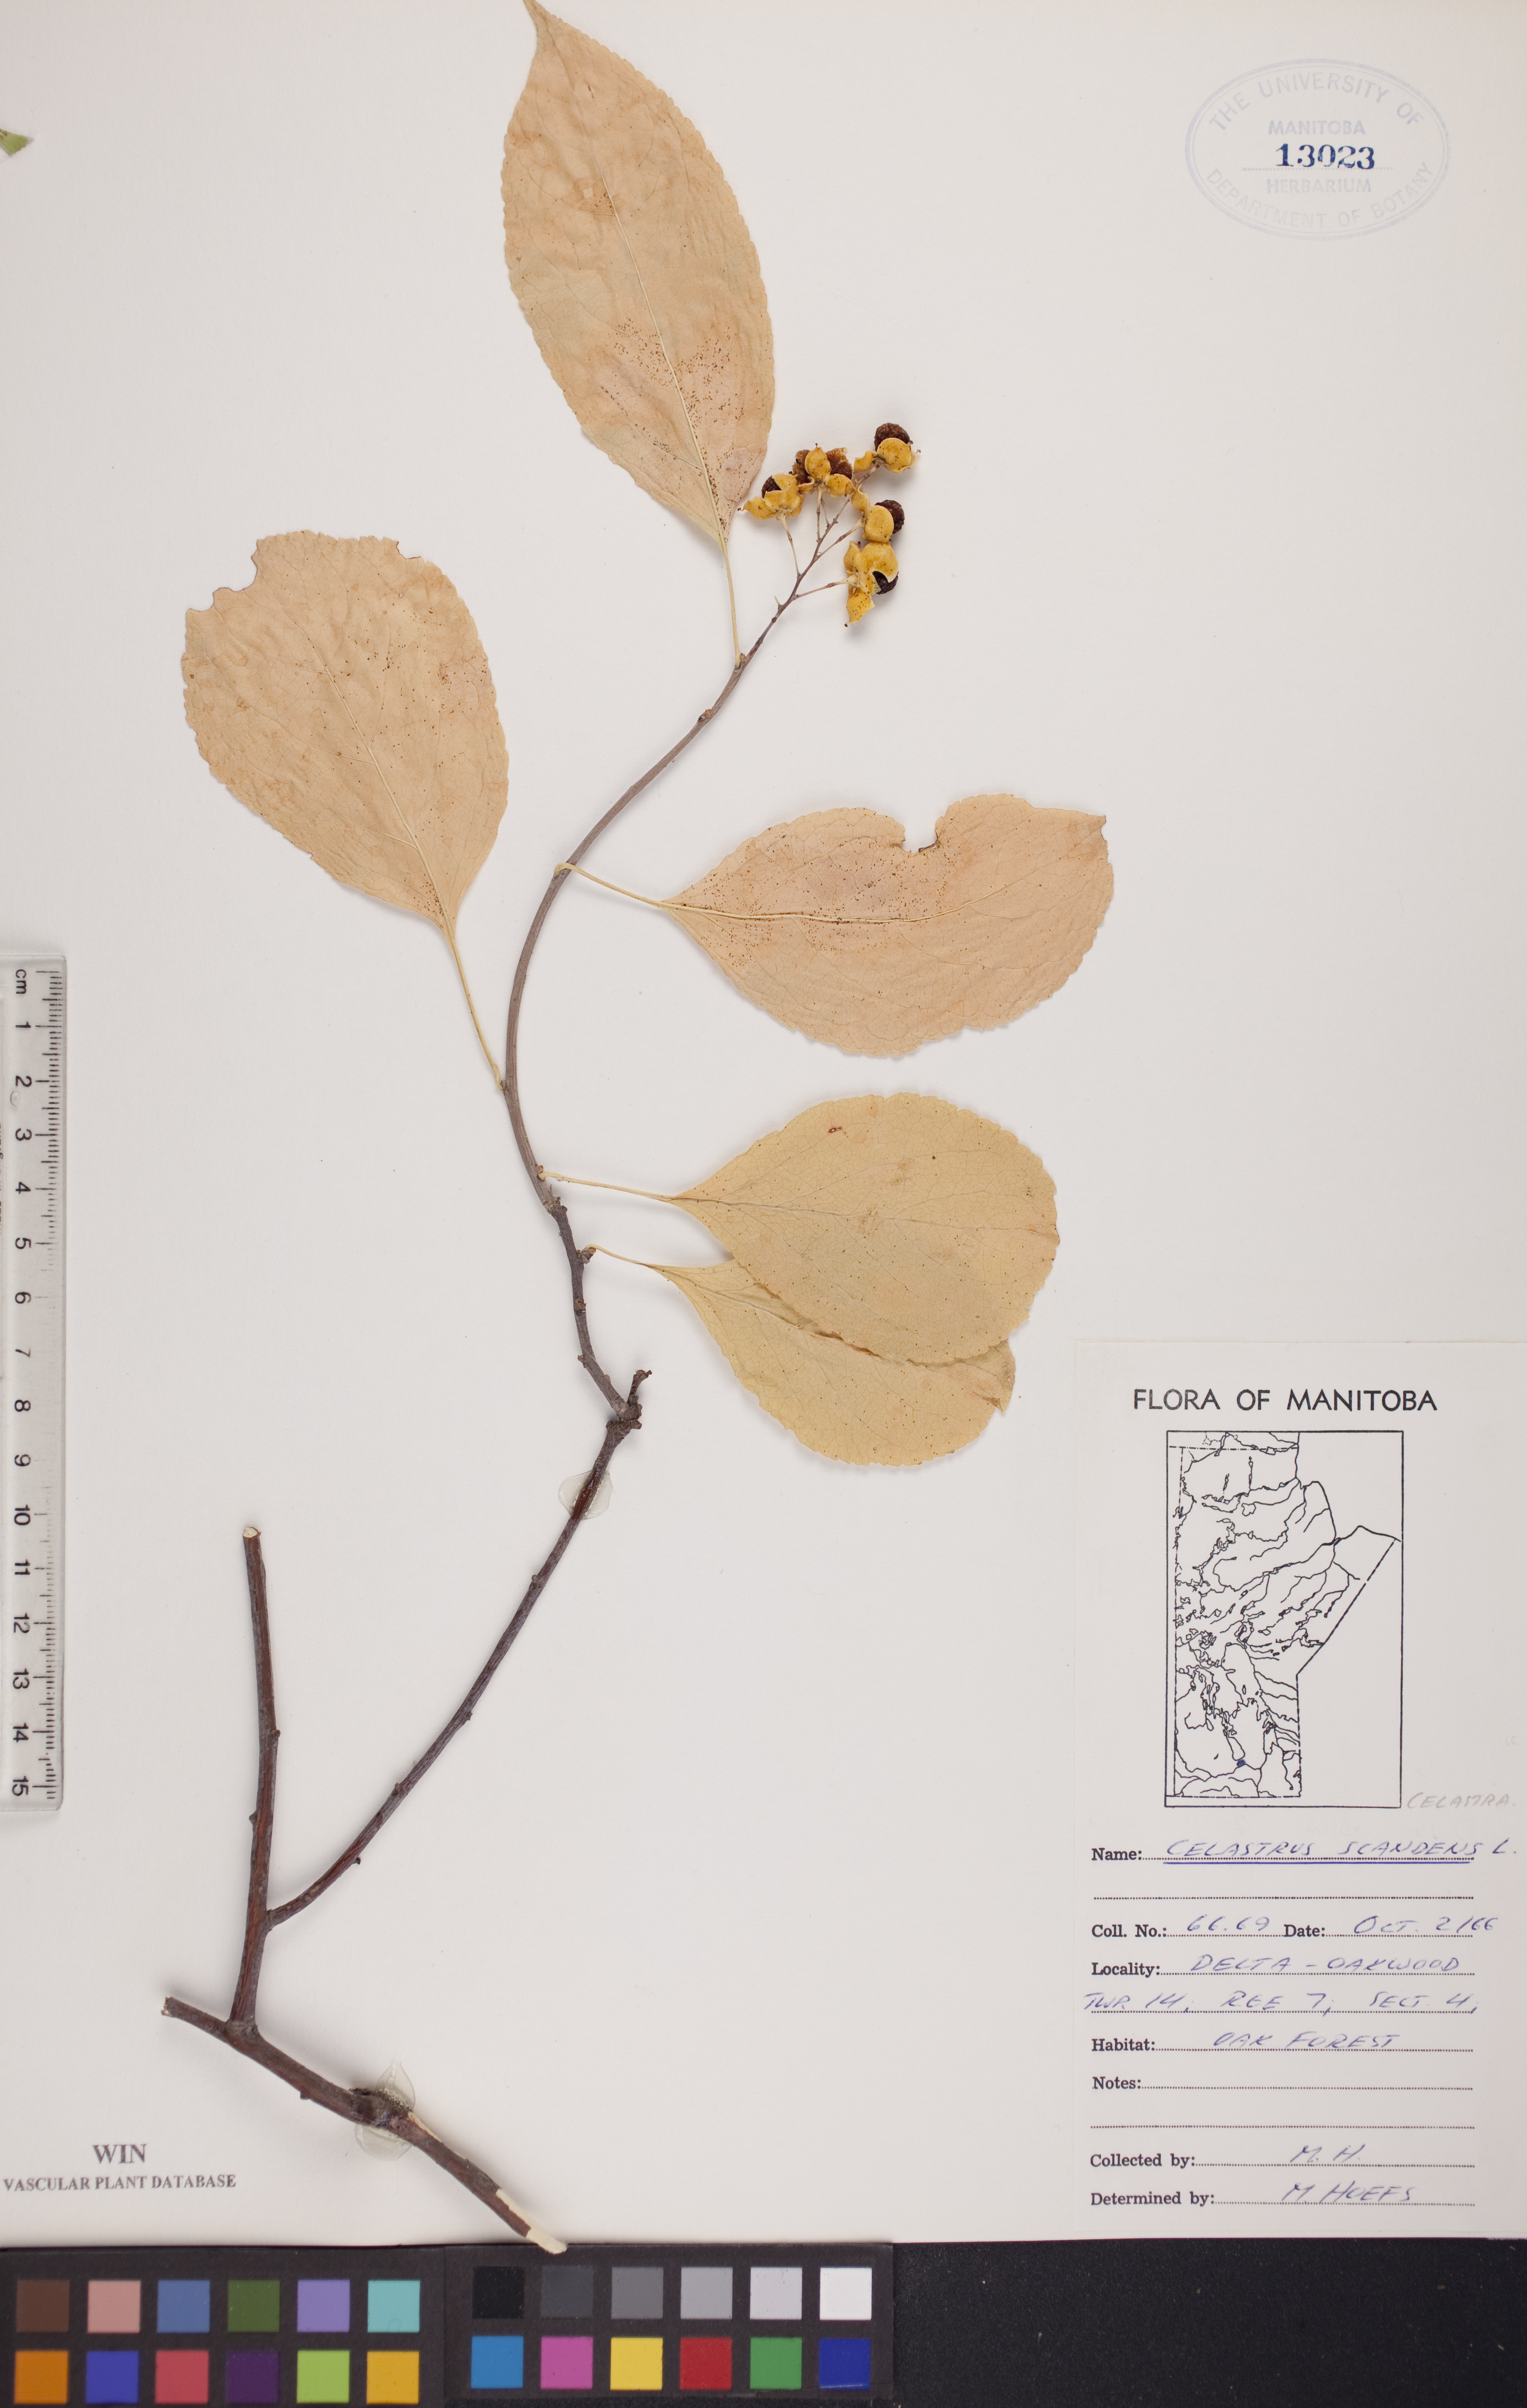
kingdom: Plantae
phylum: Tracheophyta
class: Magnoliopsida
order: Celastrales
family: Celastraceae
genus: Celastrus
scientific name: Celastrus scandens
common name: American bittersweet
